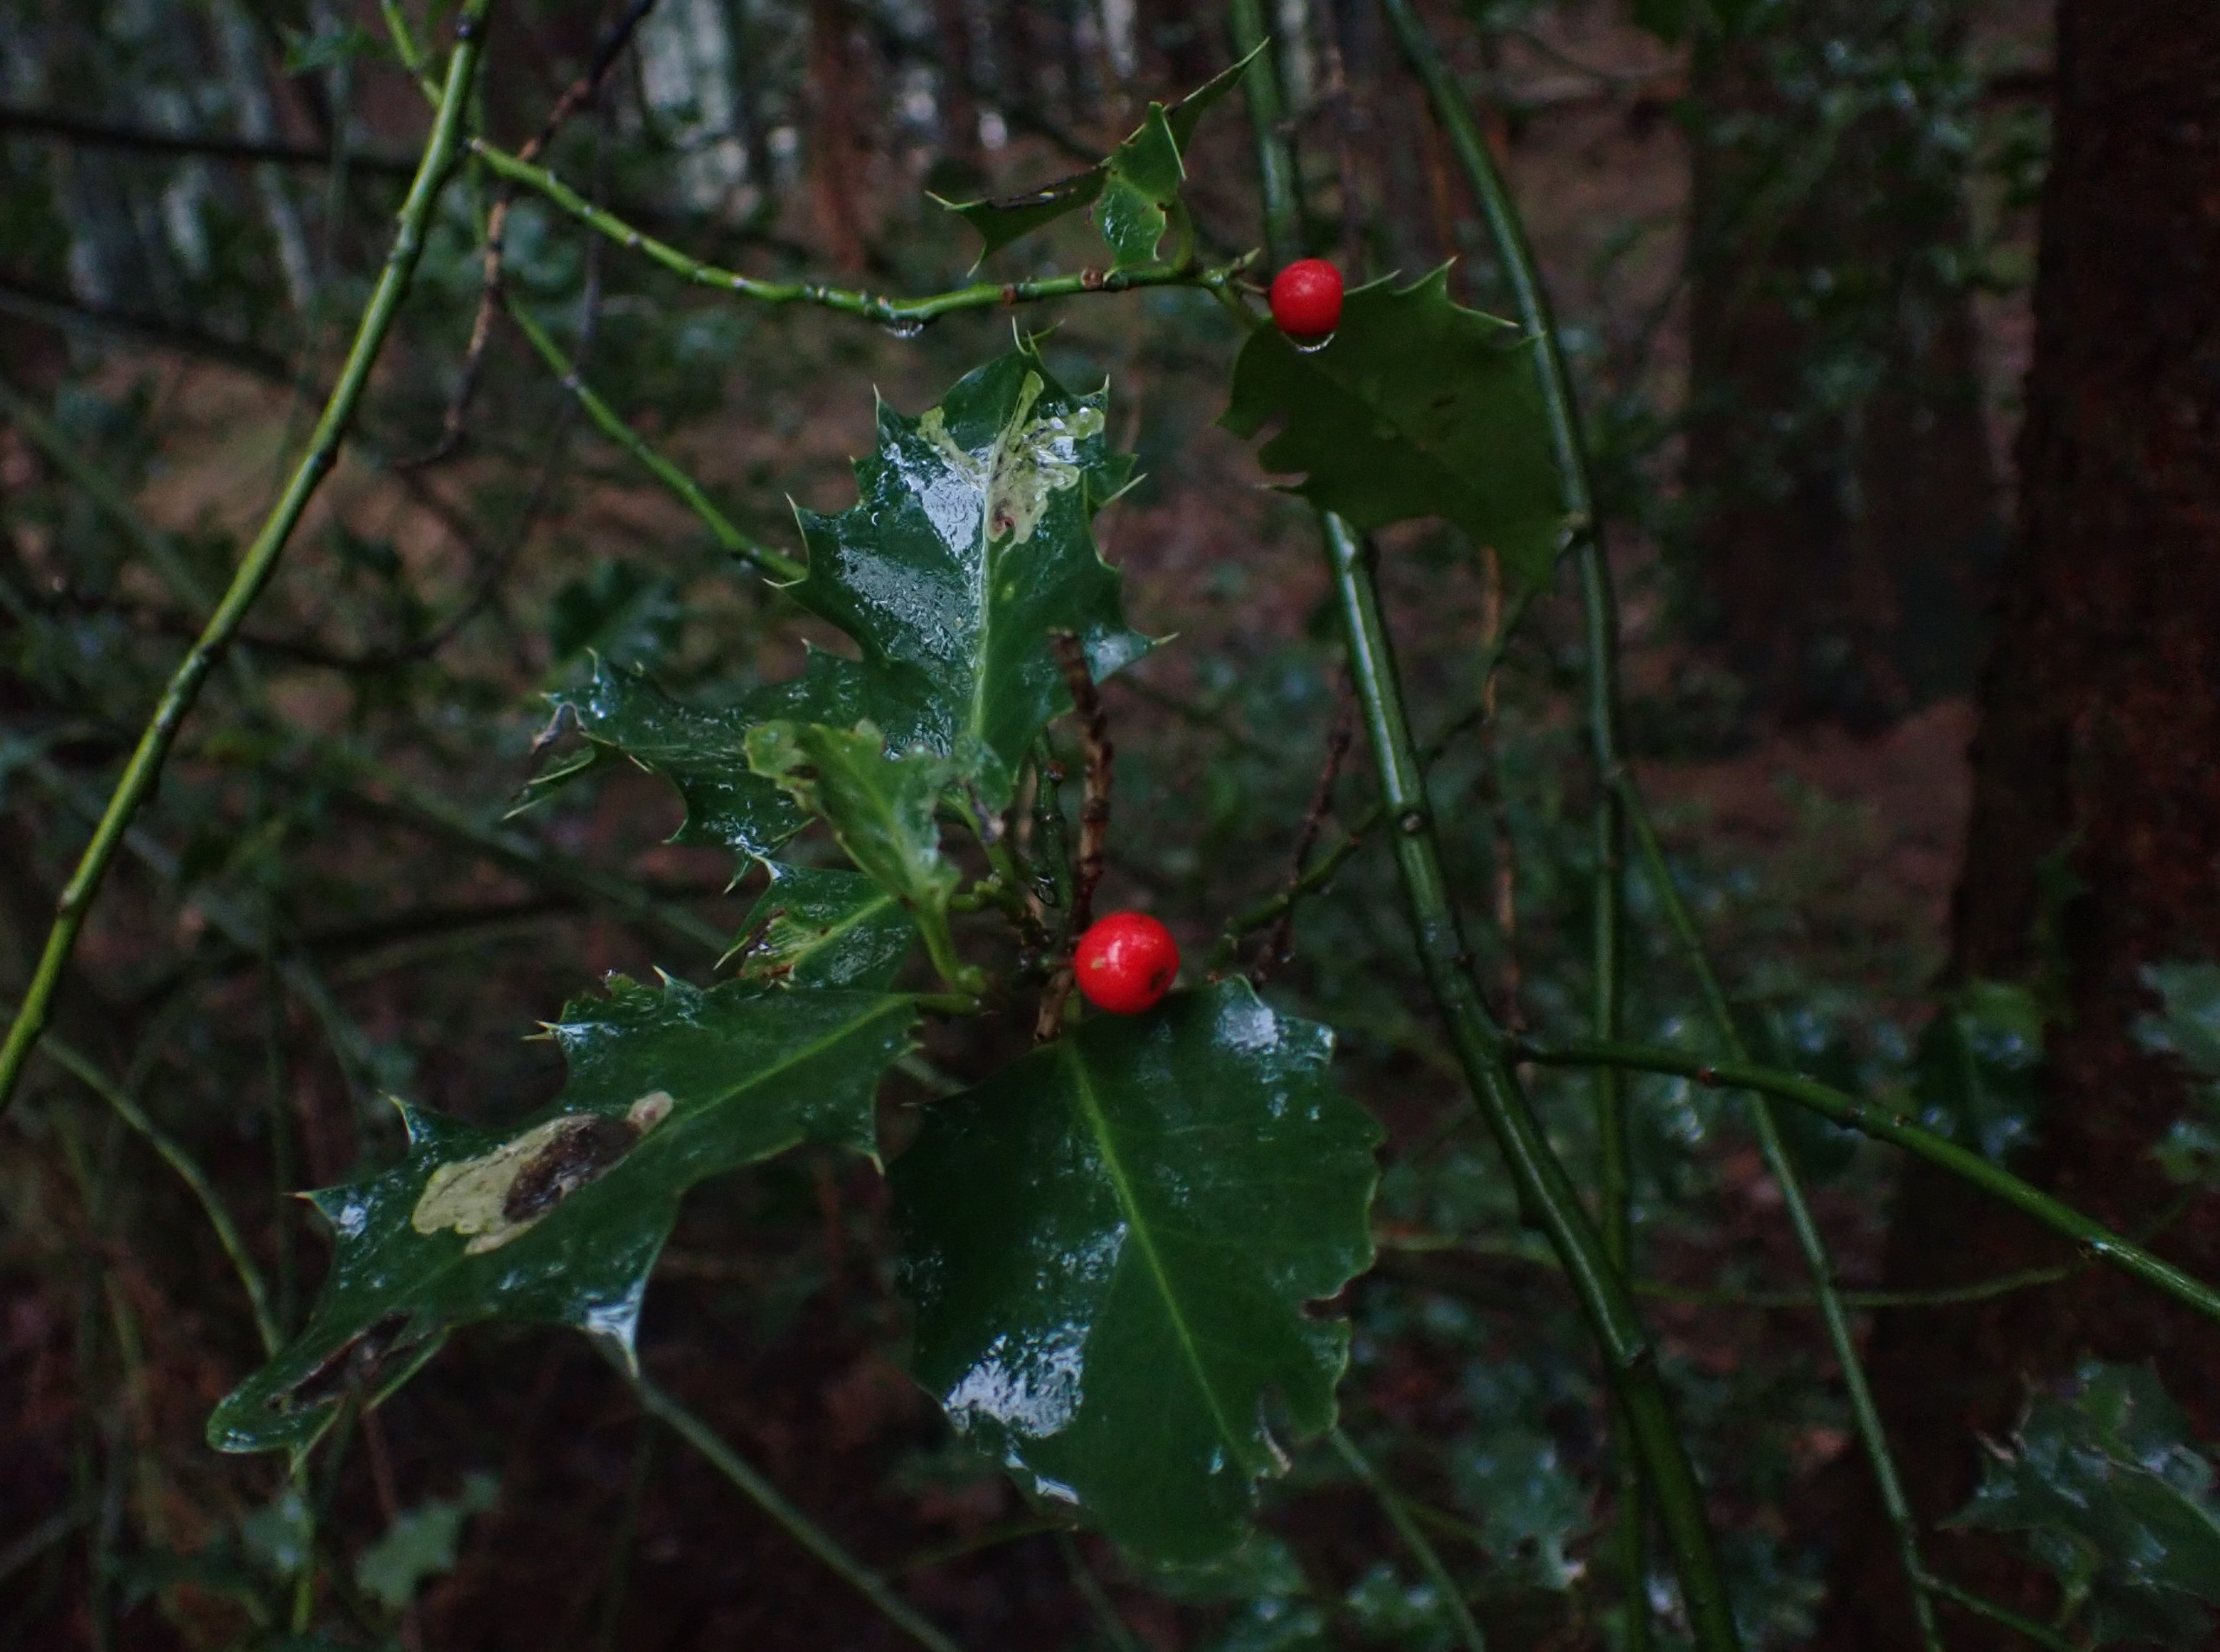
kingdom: Plantae
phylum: Tracheophyta
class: Magnoliopsida
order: Aquifoliales
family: Aquifoliaceae
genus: Ilex
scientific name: Ilex aquifolium
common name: Kristtorn
